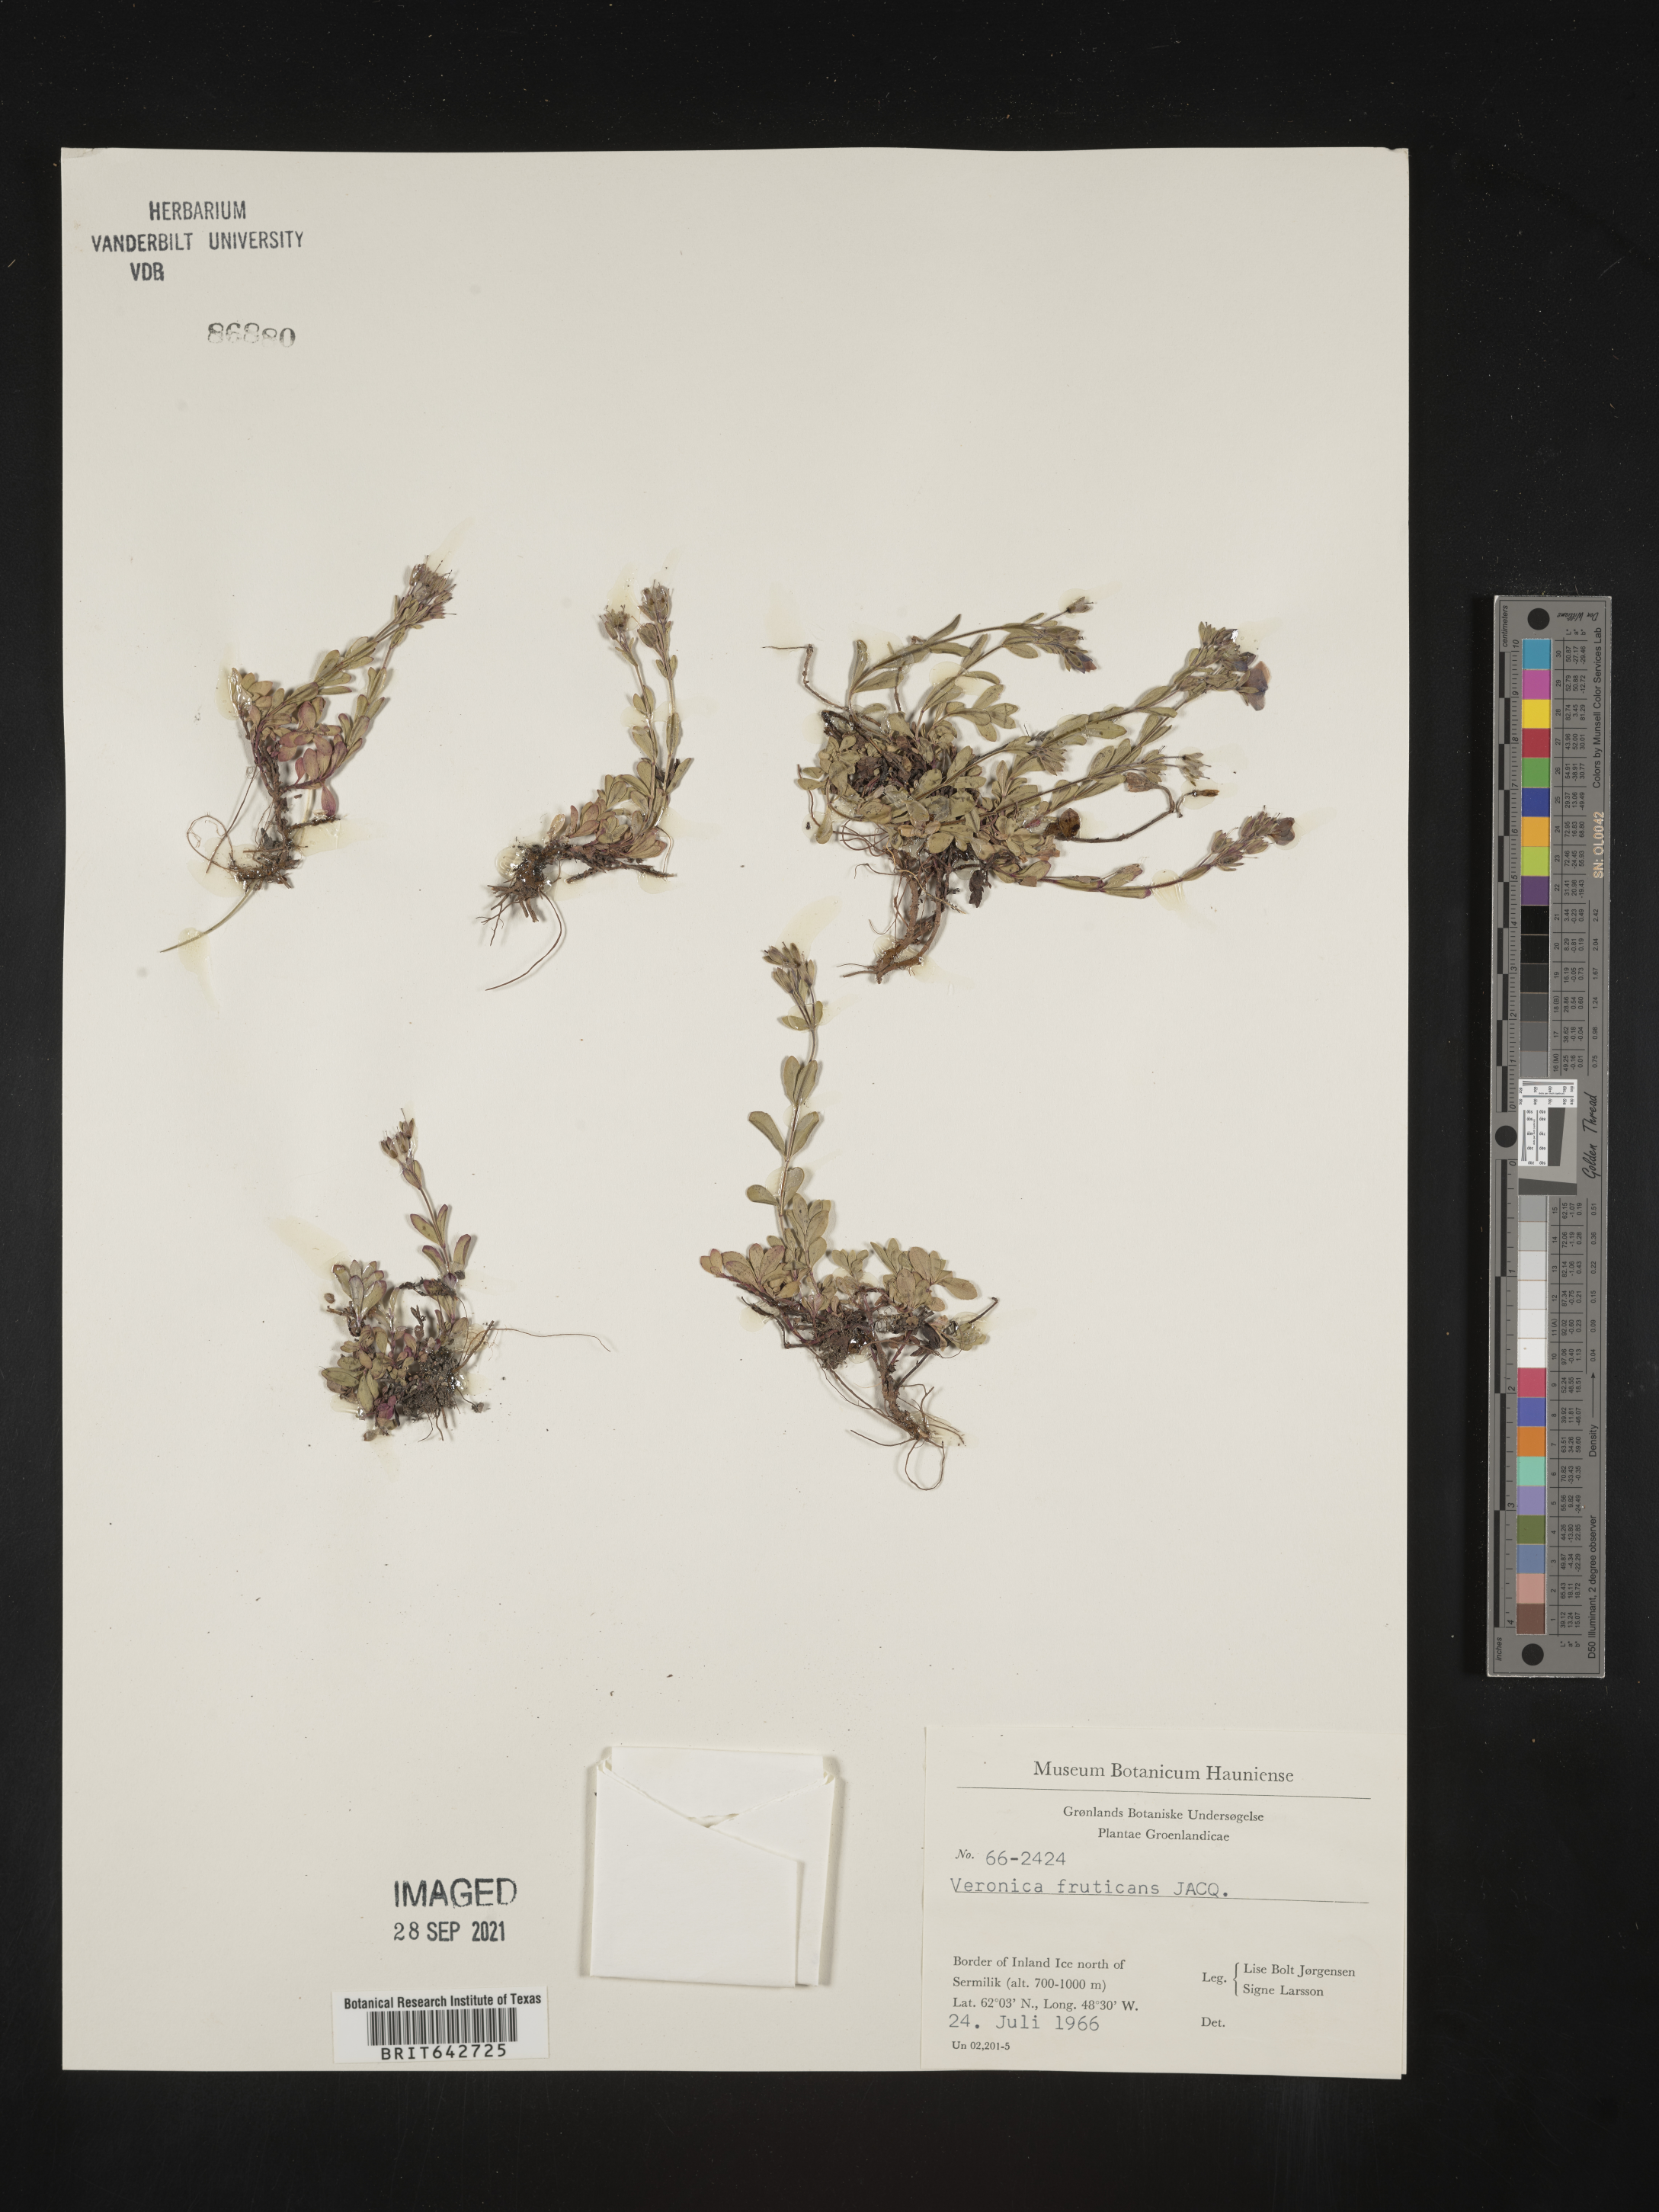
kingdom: Plantae
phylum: Tracheophyta
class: Magnoliopsida
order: Lamiales
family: Plantaginaceae
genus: Veronica
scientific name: Veronica
